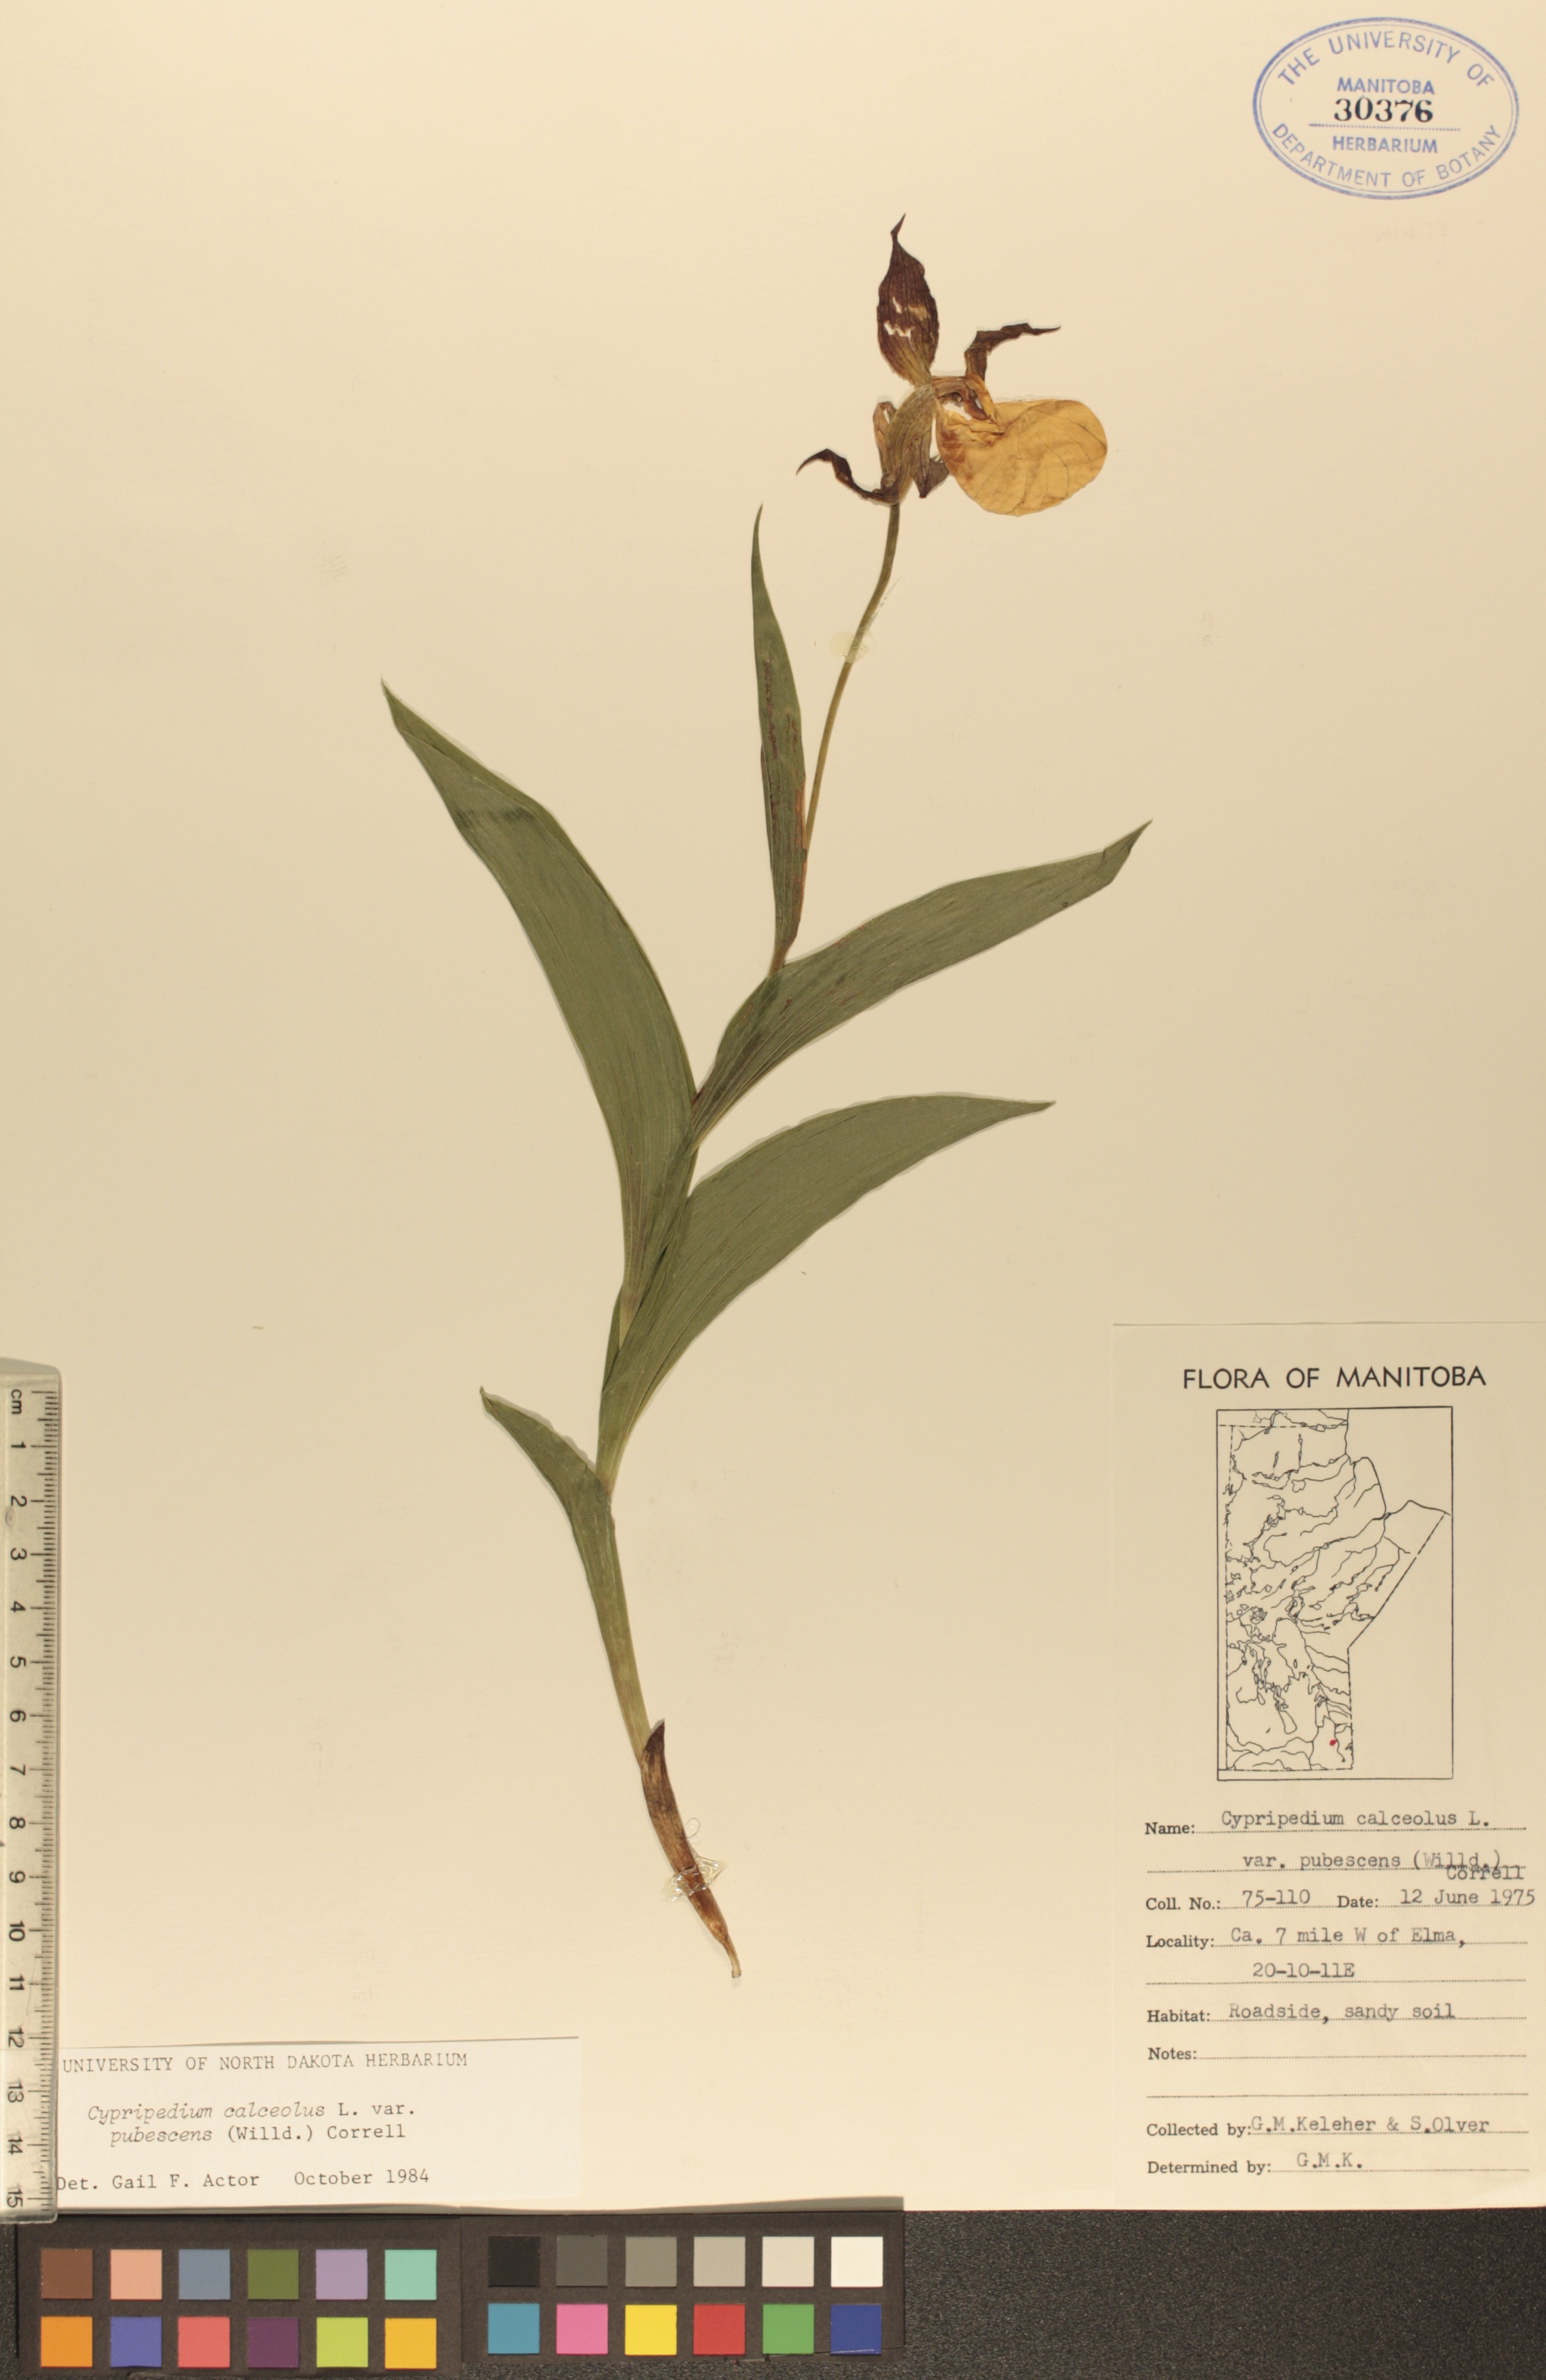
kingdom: Plantae
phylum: Tracheophyta
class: Liliopsida
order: Asparagales
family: Orchidaceae
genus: Cypripedium
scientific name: Cypripedium parviflorum
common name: American yellow lady's-slipper
